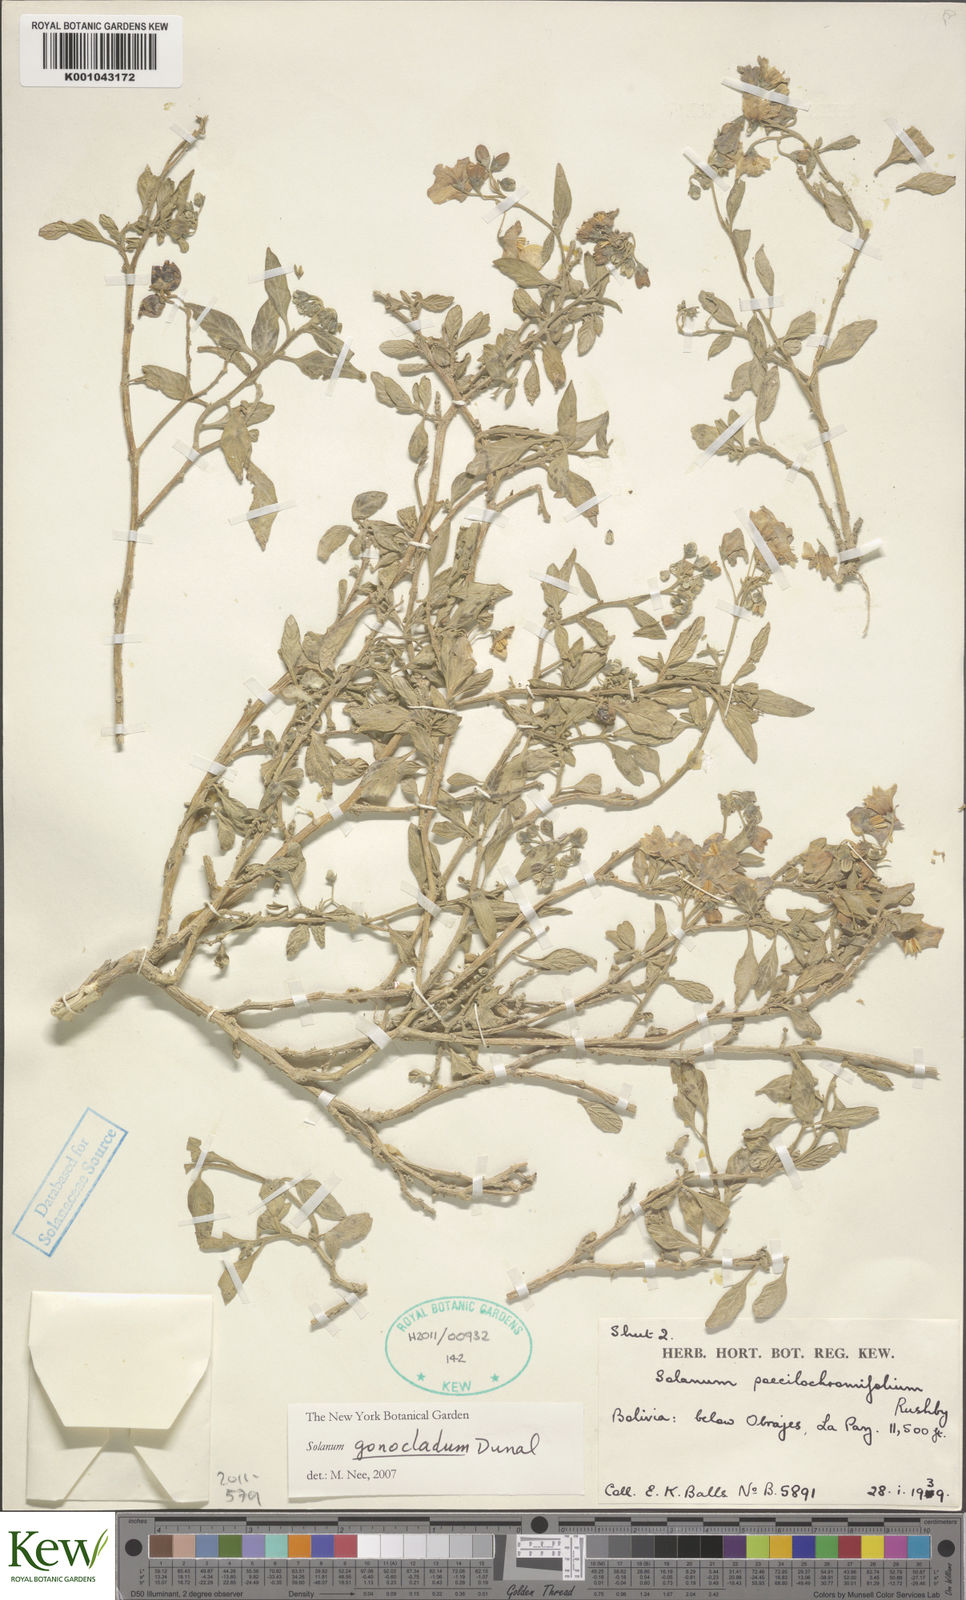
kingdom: Plantae
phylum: Tracheophyta
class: Magnoliopsida
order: Solanales
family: Solanaceae
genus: Solanum
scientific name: Solanum gonocladum
